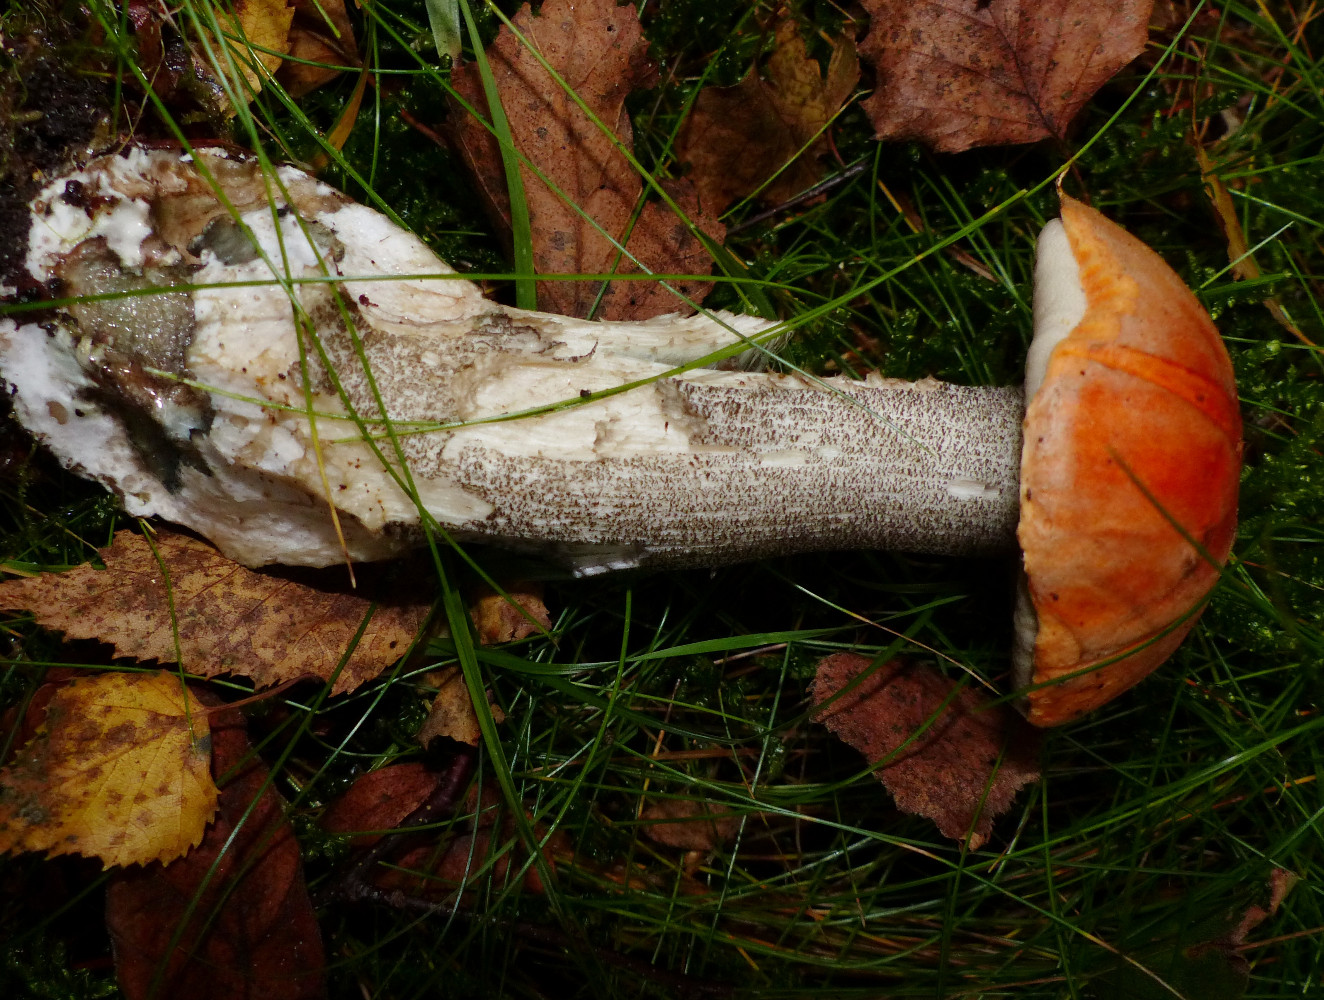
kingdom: Fungi
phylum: Basidiomycota
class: Agaricomycetes
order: Boletales
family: Boletaceae
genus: Leccinum
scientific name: Leccinum versipelle
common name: orange skælrørhat
